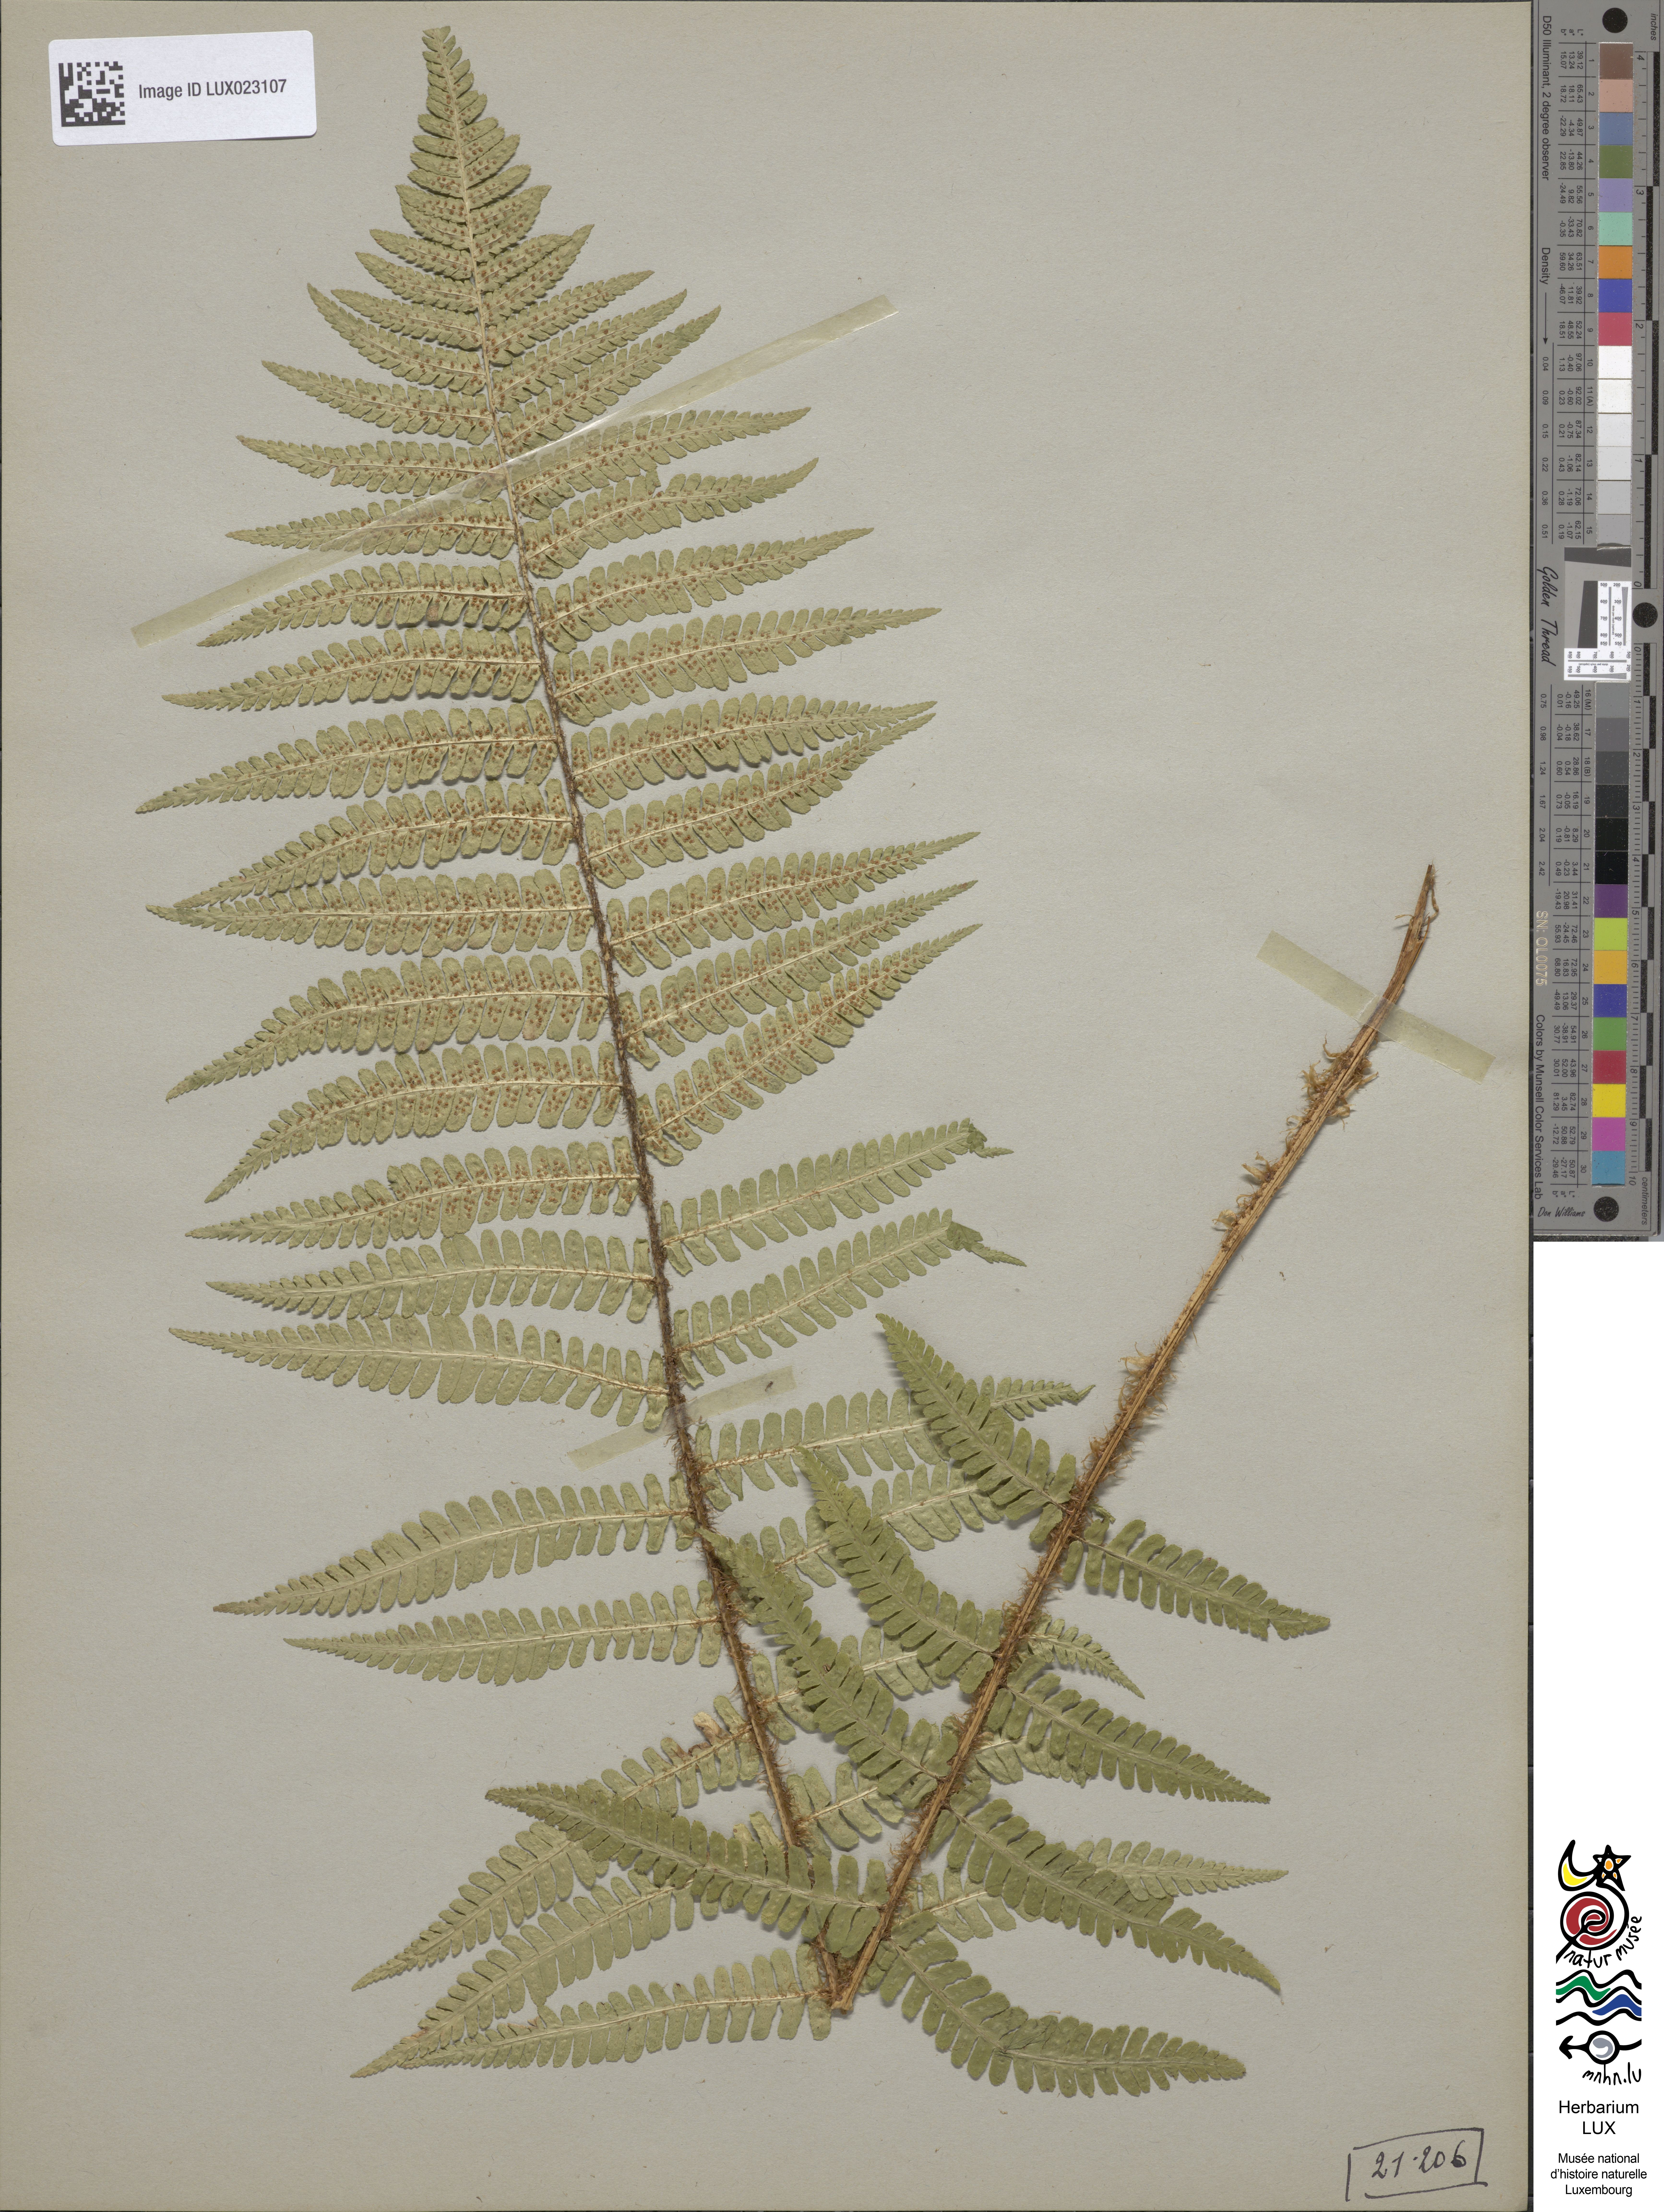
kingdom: Plantae
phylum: Tracheophyta
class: Polypodiopsida
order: Polypodiales
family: Dryopteridaceae
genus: Dryopteris
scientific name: Dryopteris borreri
